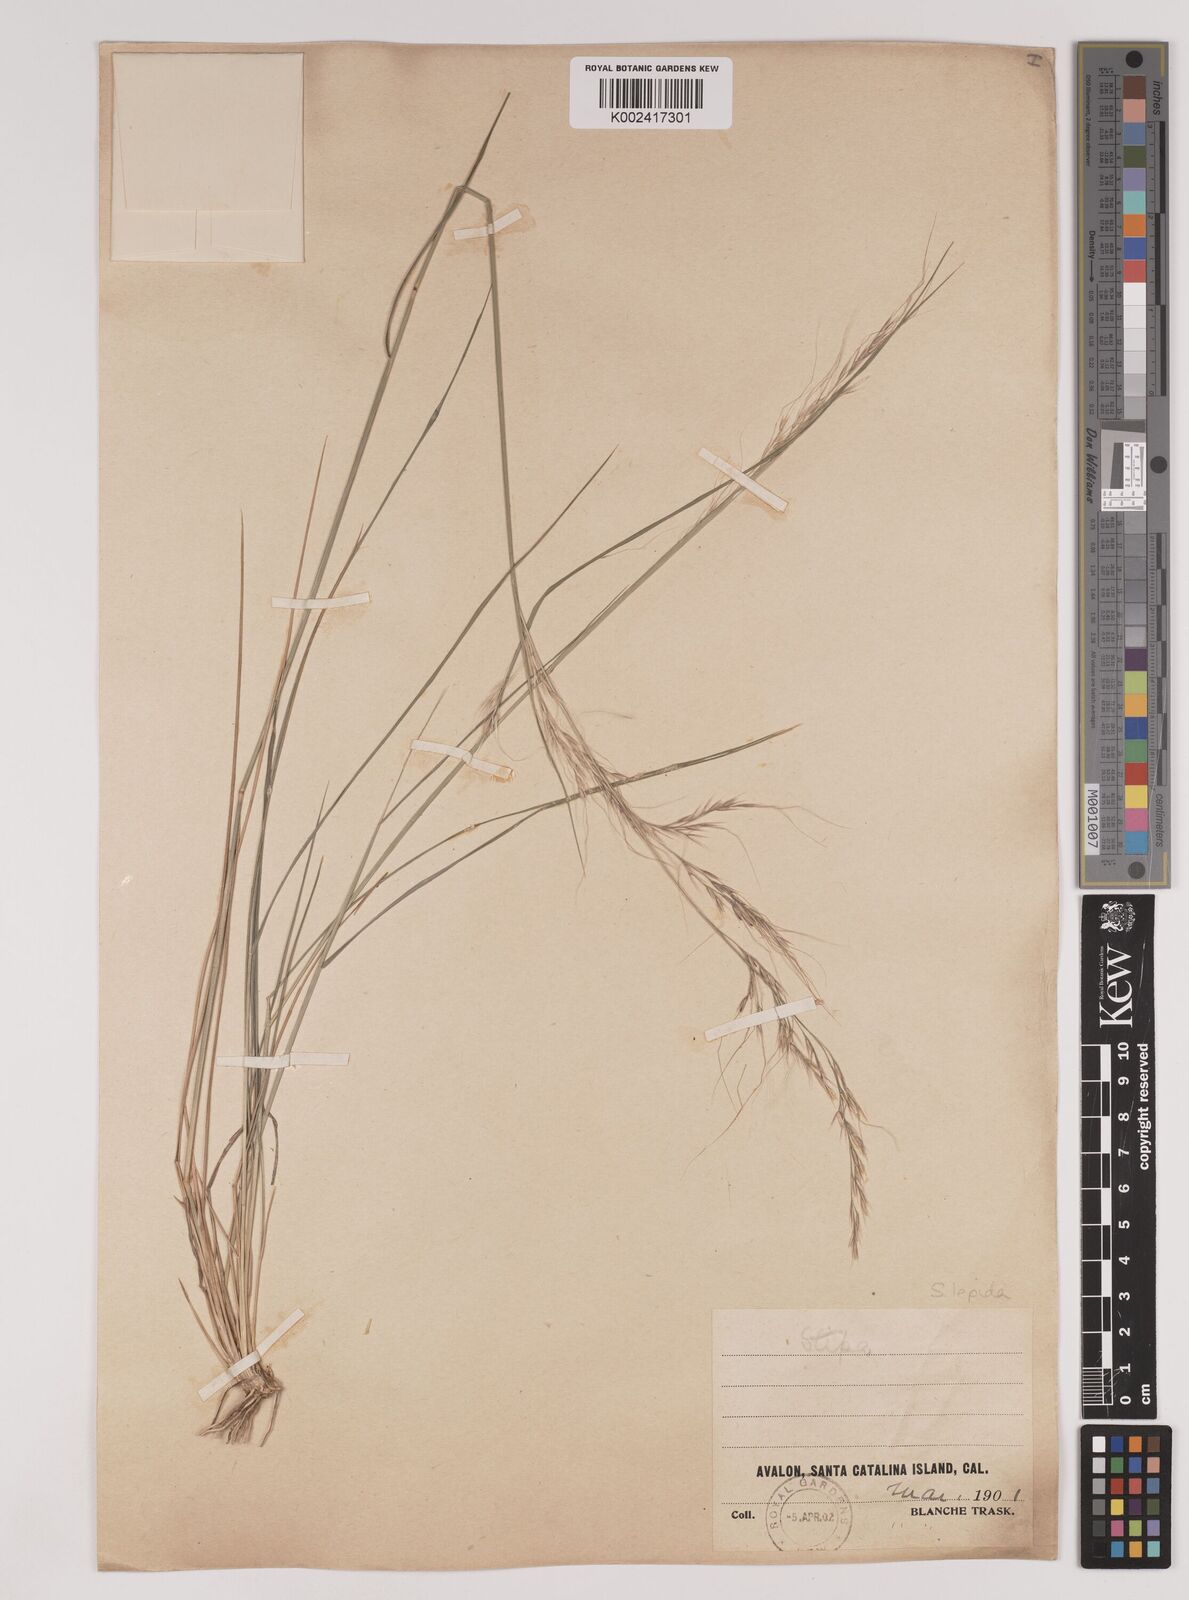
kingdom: Plantae
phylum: Tracheophyta
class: Liliopsida
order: Poales
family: Poaceae
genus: Nassella
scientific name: Nassella lepida
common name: Foothill needlegrass
